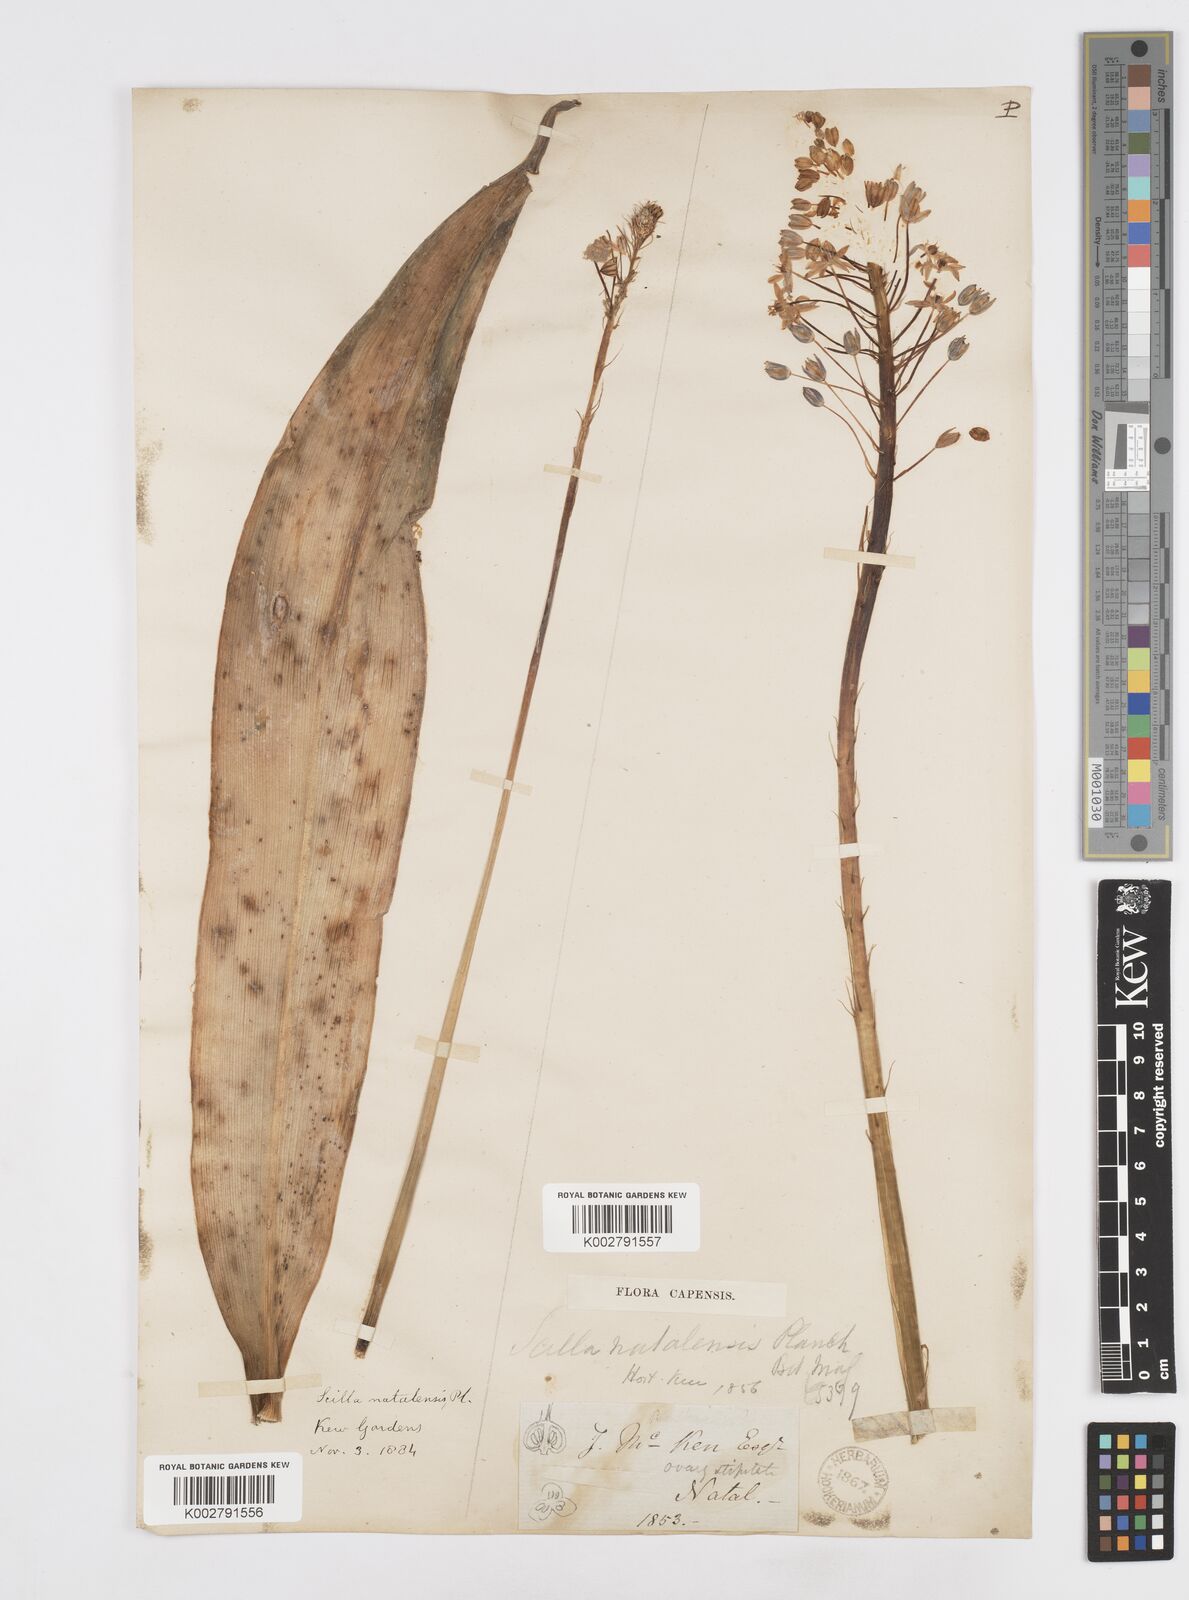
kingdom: Plantae
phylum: Tracheophyta
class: Liliopsida
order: Asparagales
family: Asparagaceae
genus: Merwilla
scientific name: Merwilla plumbea
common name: Blue-squill
